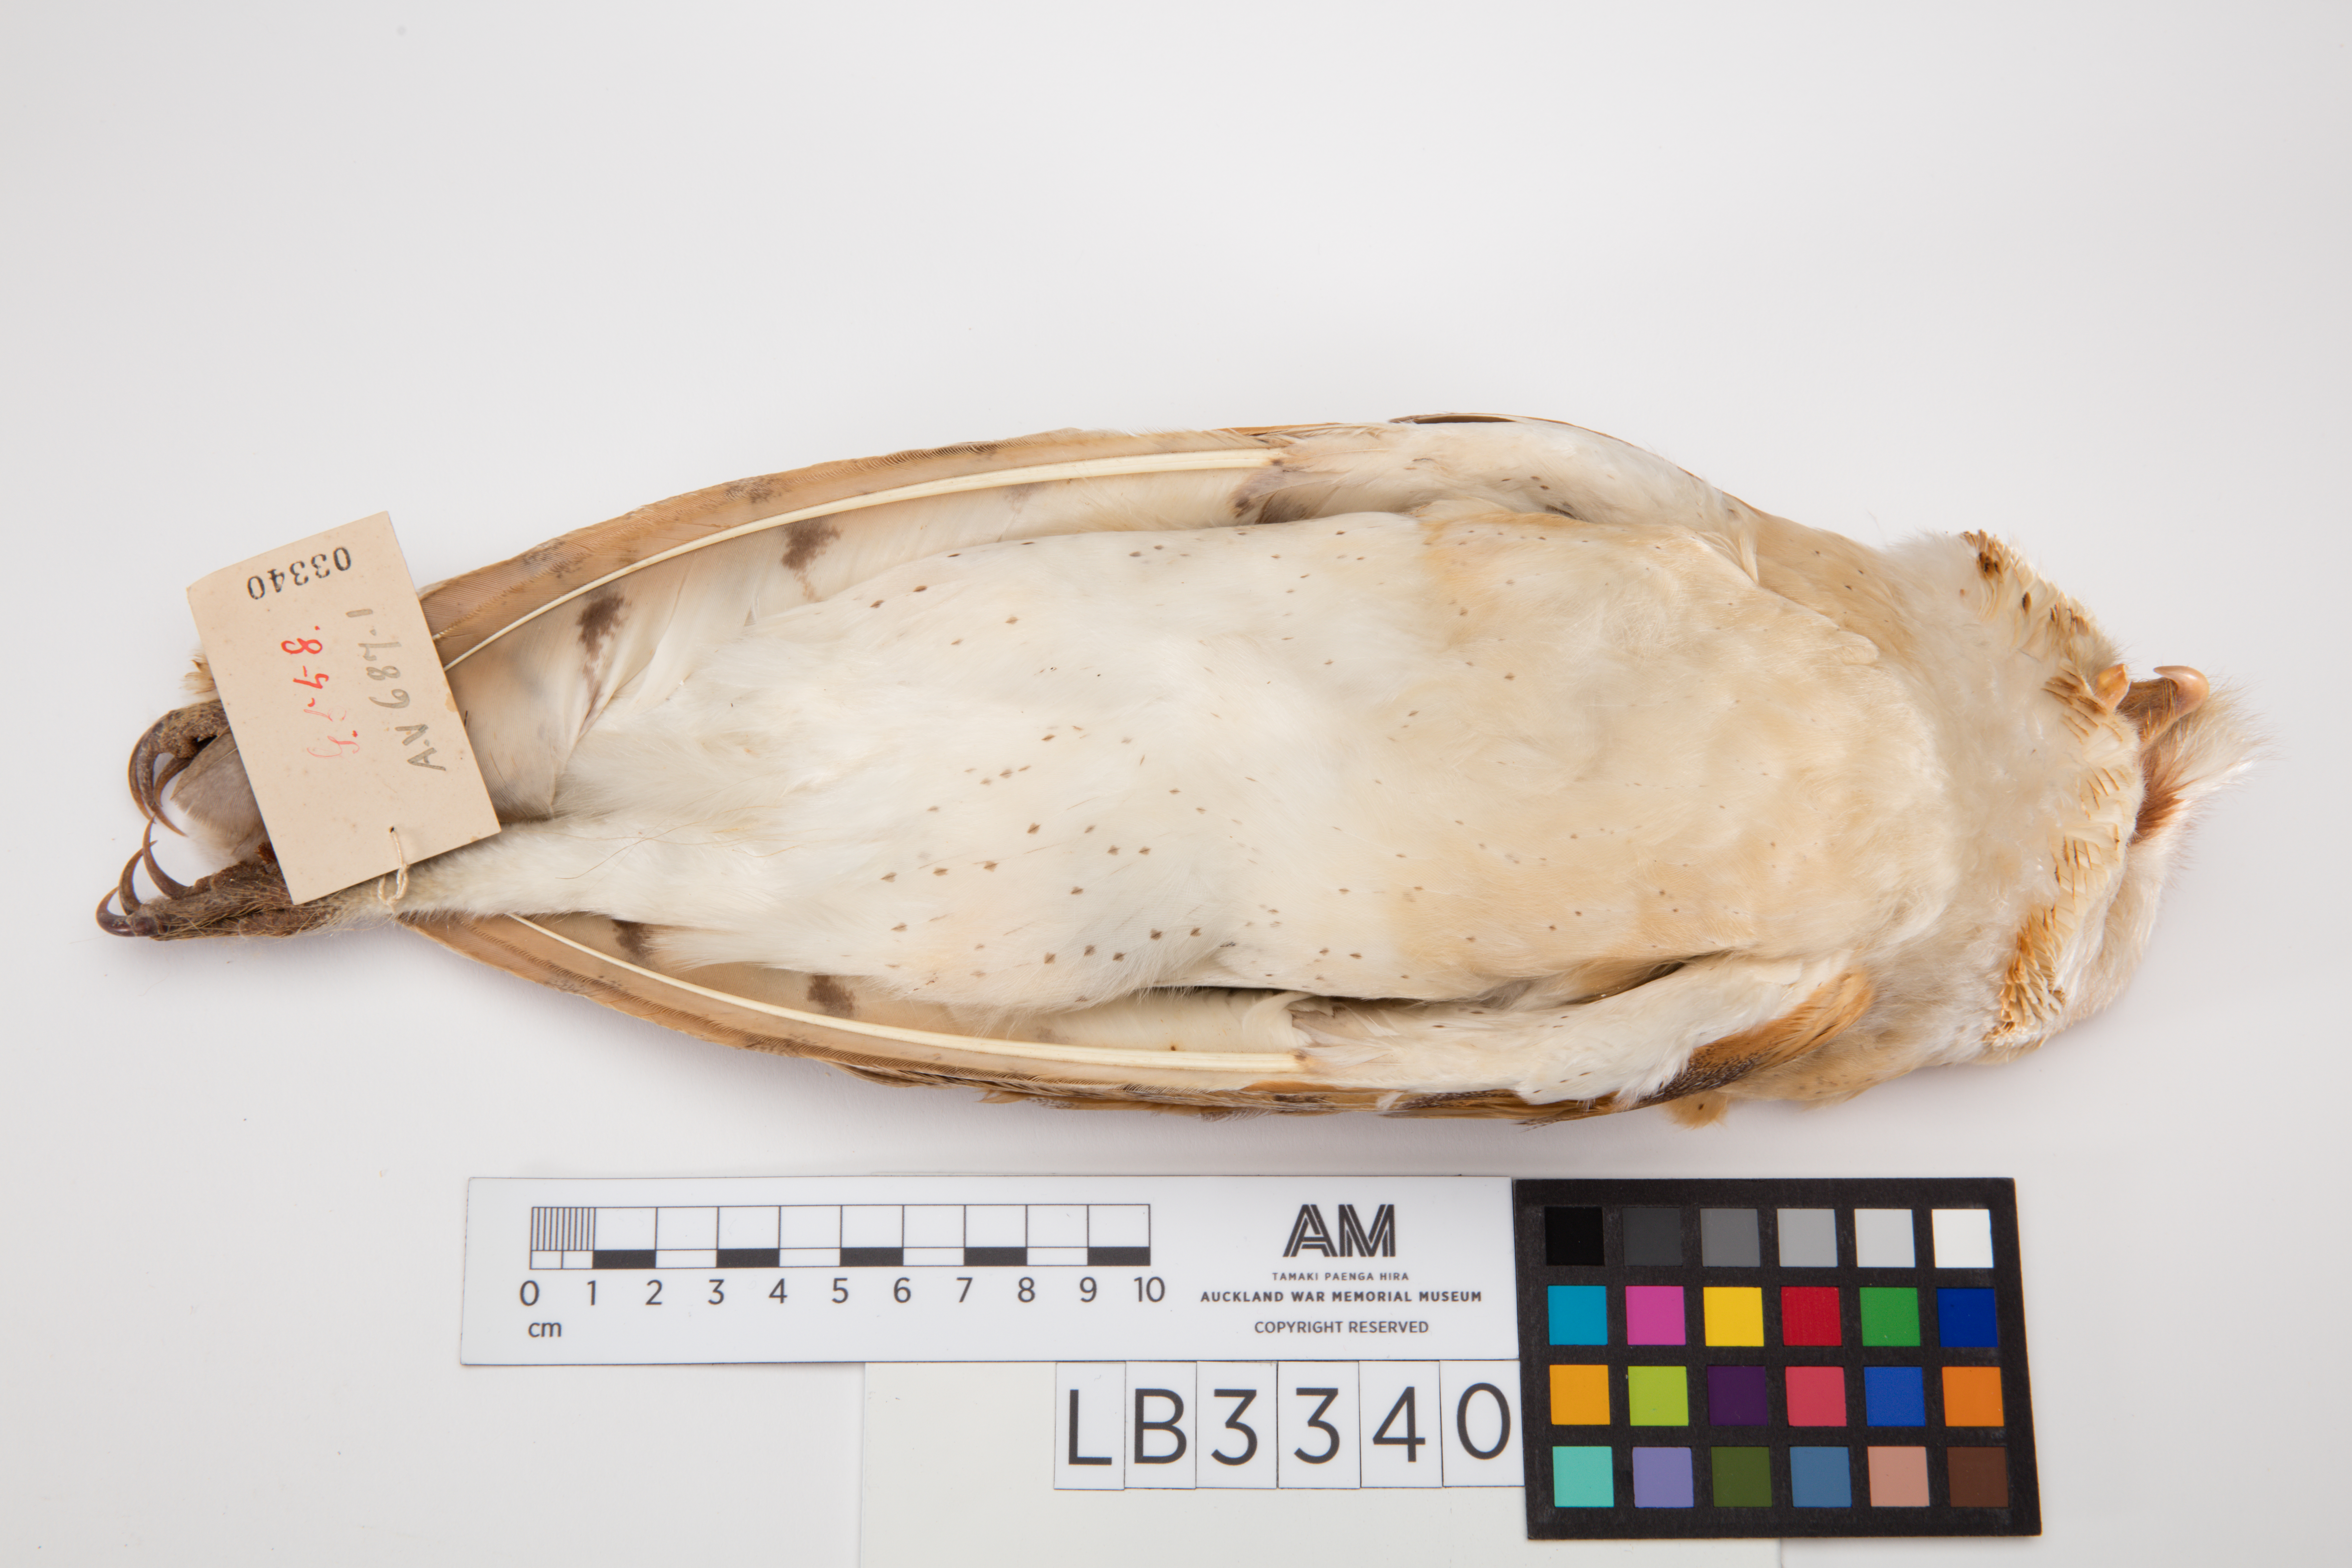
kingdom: Animalia
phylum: Chordata
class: Aves
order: Strigiformes
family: Tytonidae
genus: Tyto
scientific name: Tyto alba
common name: Barn owl
